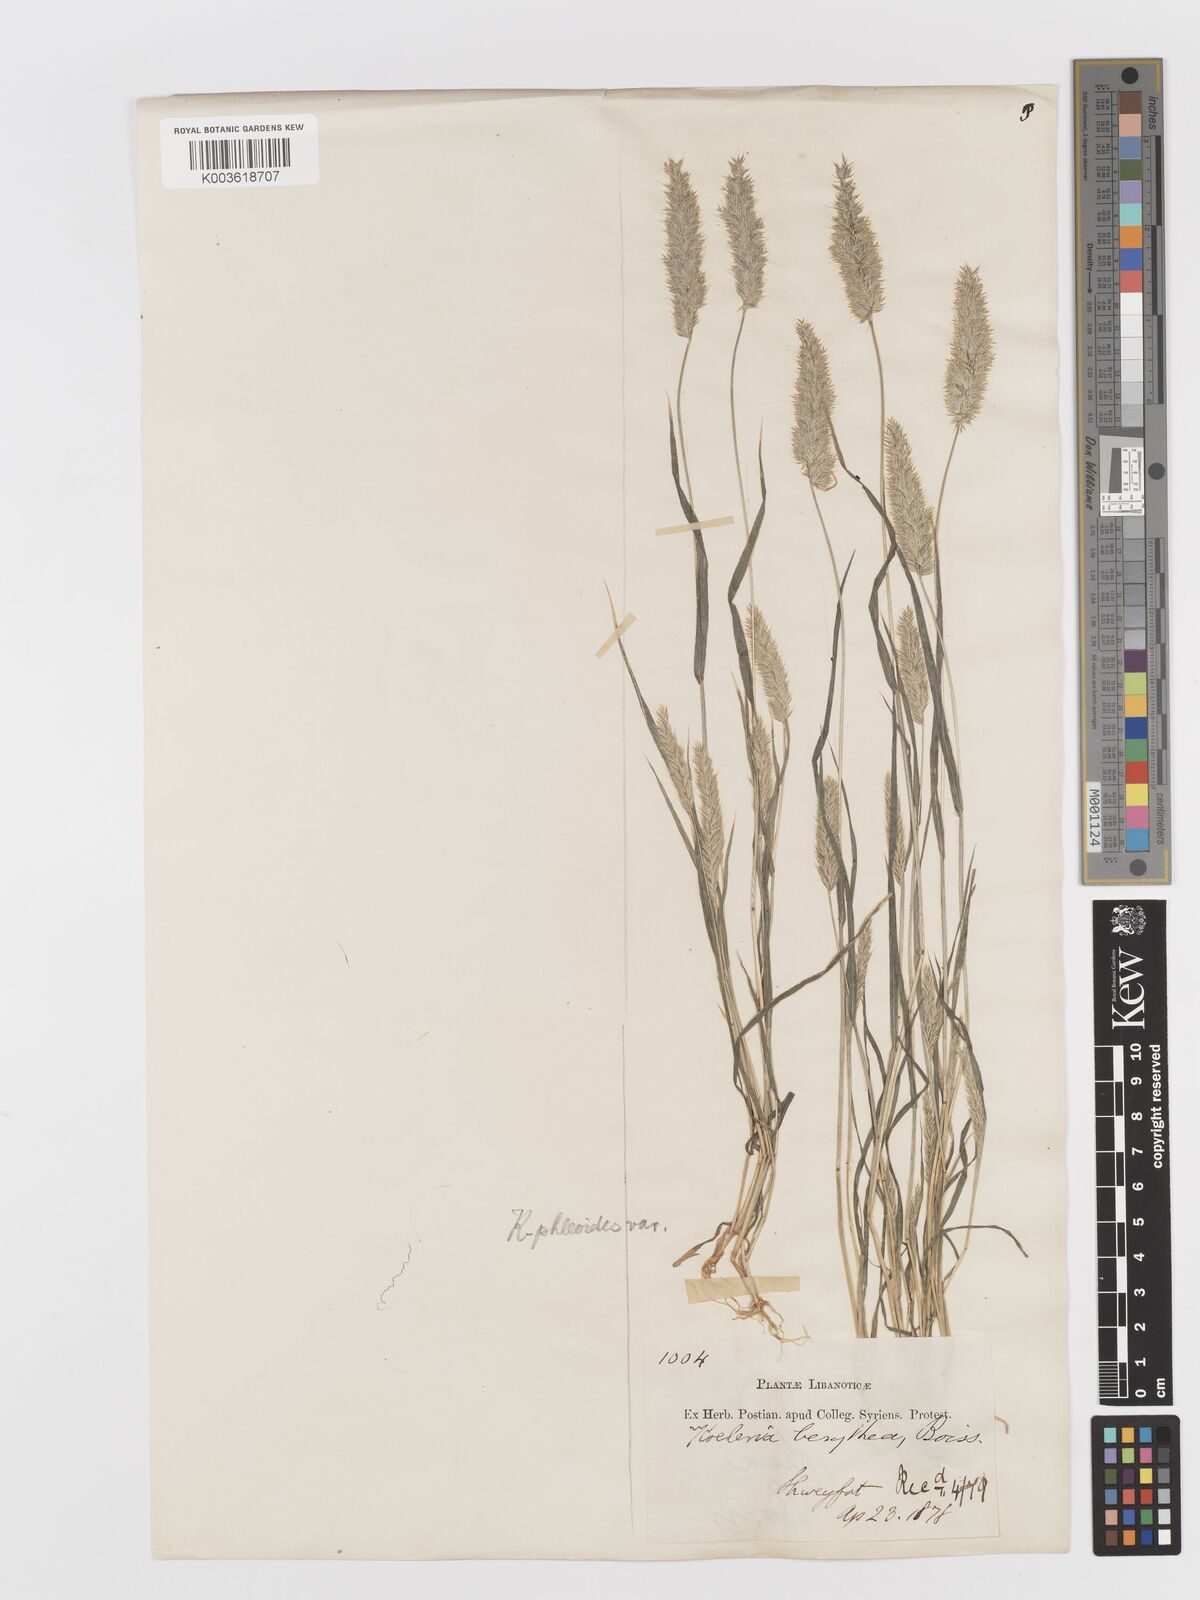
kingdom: Plantae
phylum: Tracheophyta
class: Liliopsida
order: Poales
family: Poaceae
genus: Rostraria
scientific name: Rostraria smyrnaea
